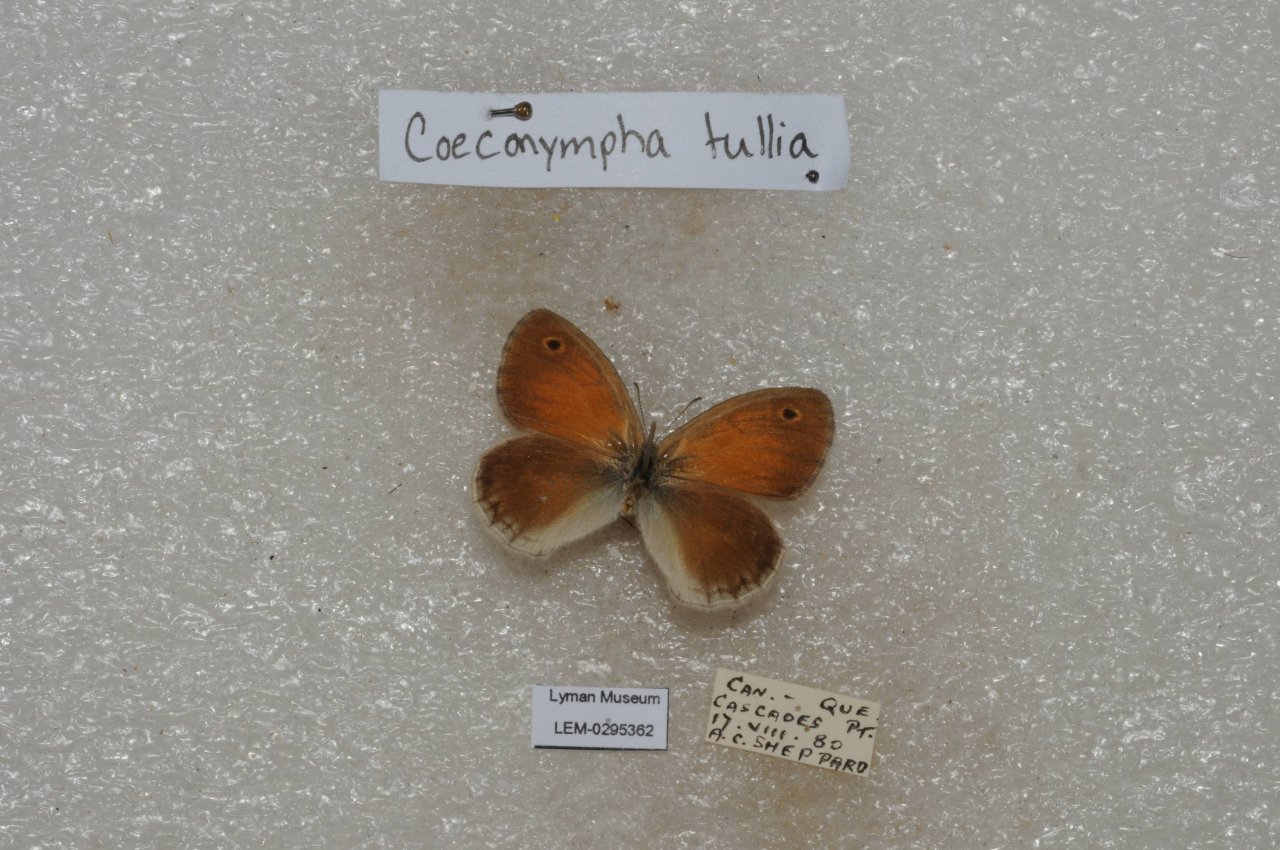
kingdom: Animalia
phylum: Arthropoda
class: Insecta
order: Lepidoptera
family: Nymphalidae
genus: Coenonympha
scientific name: Coenonympha tullia
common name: Large Heath
